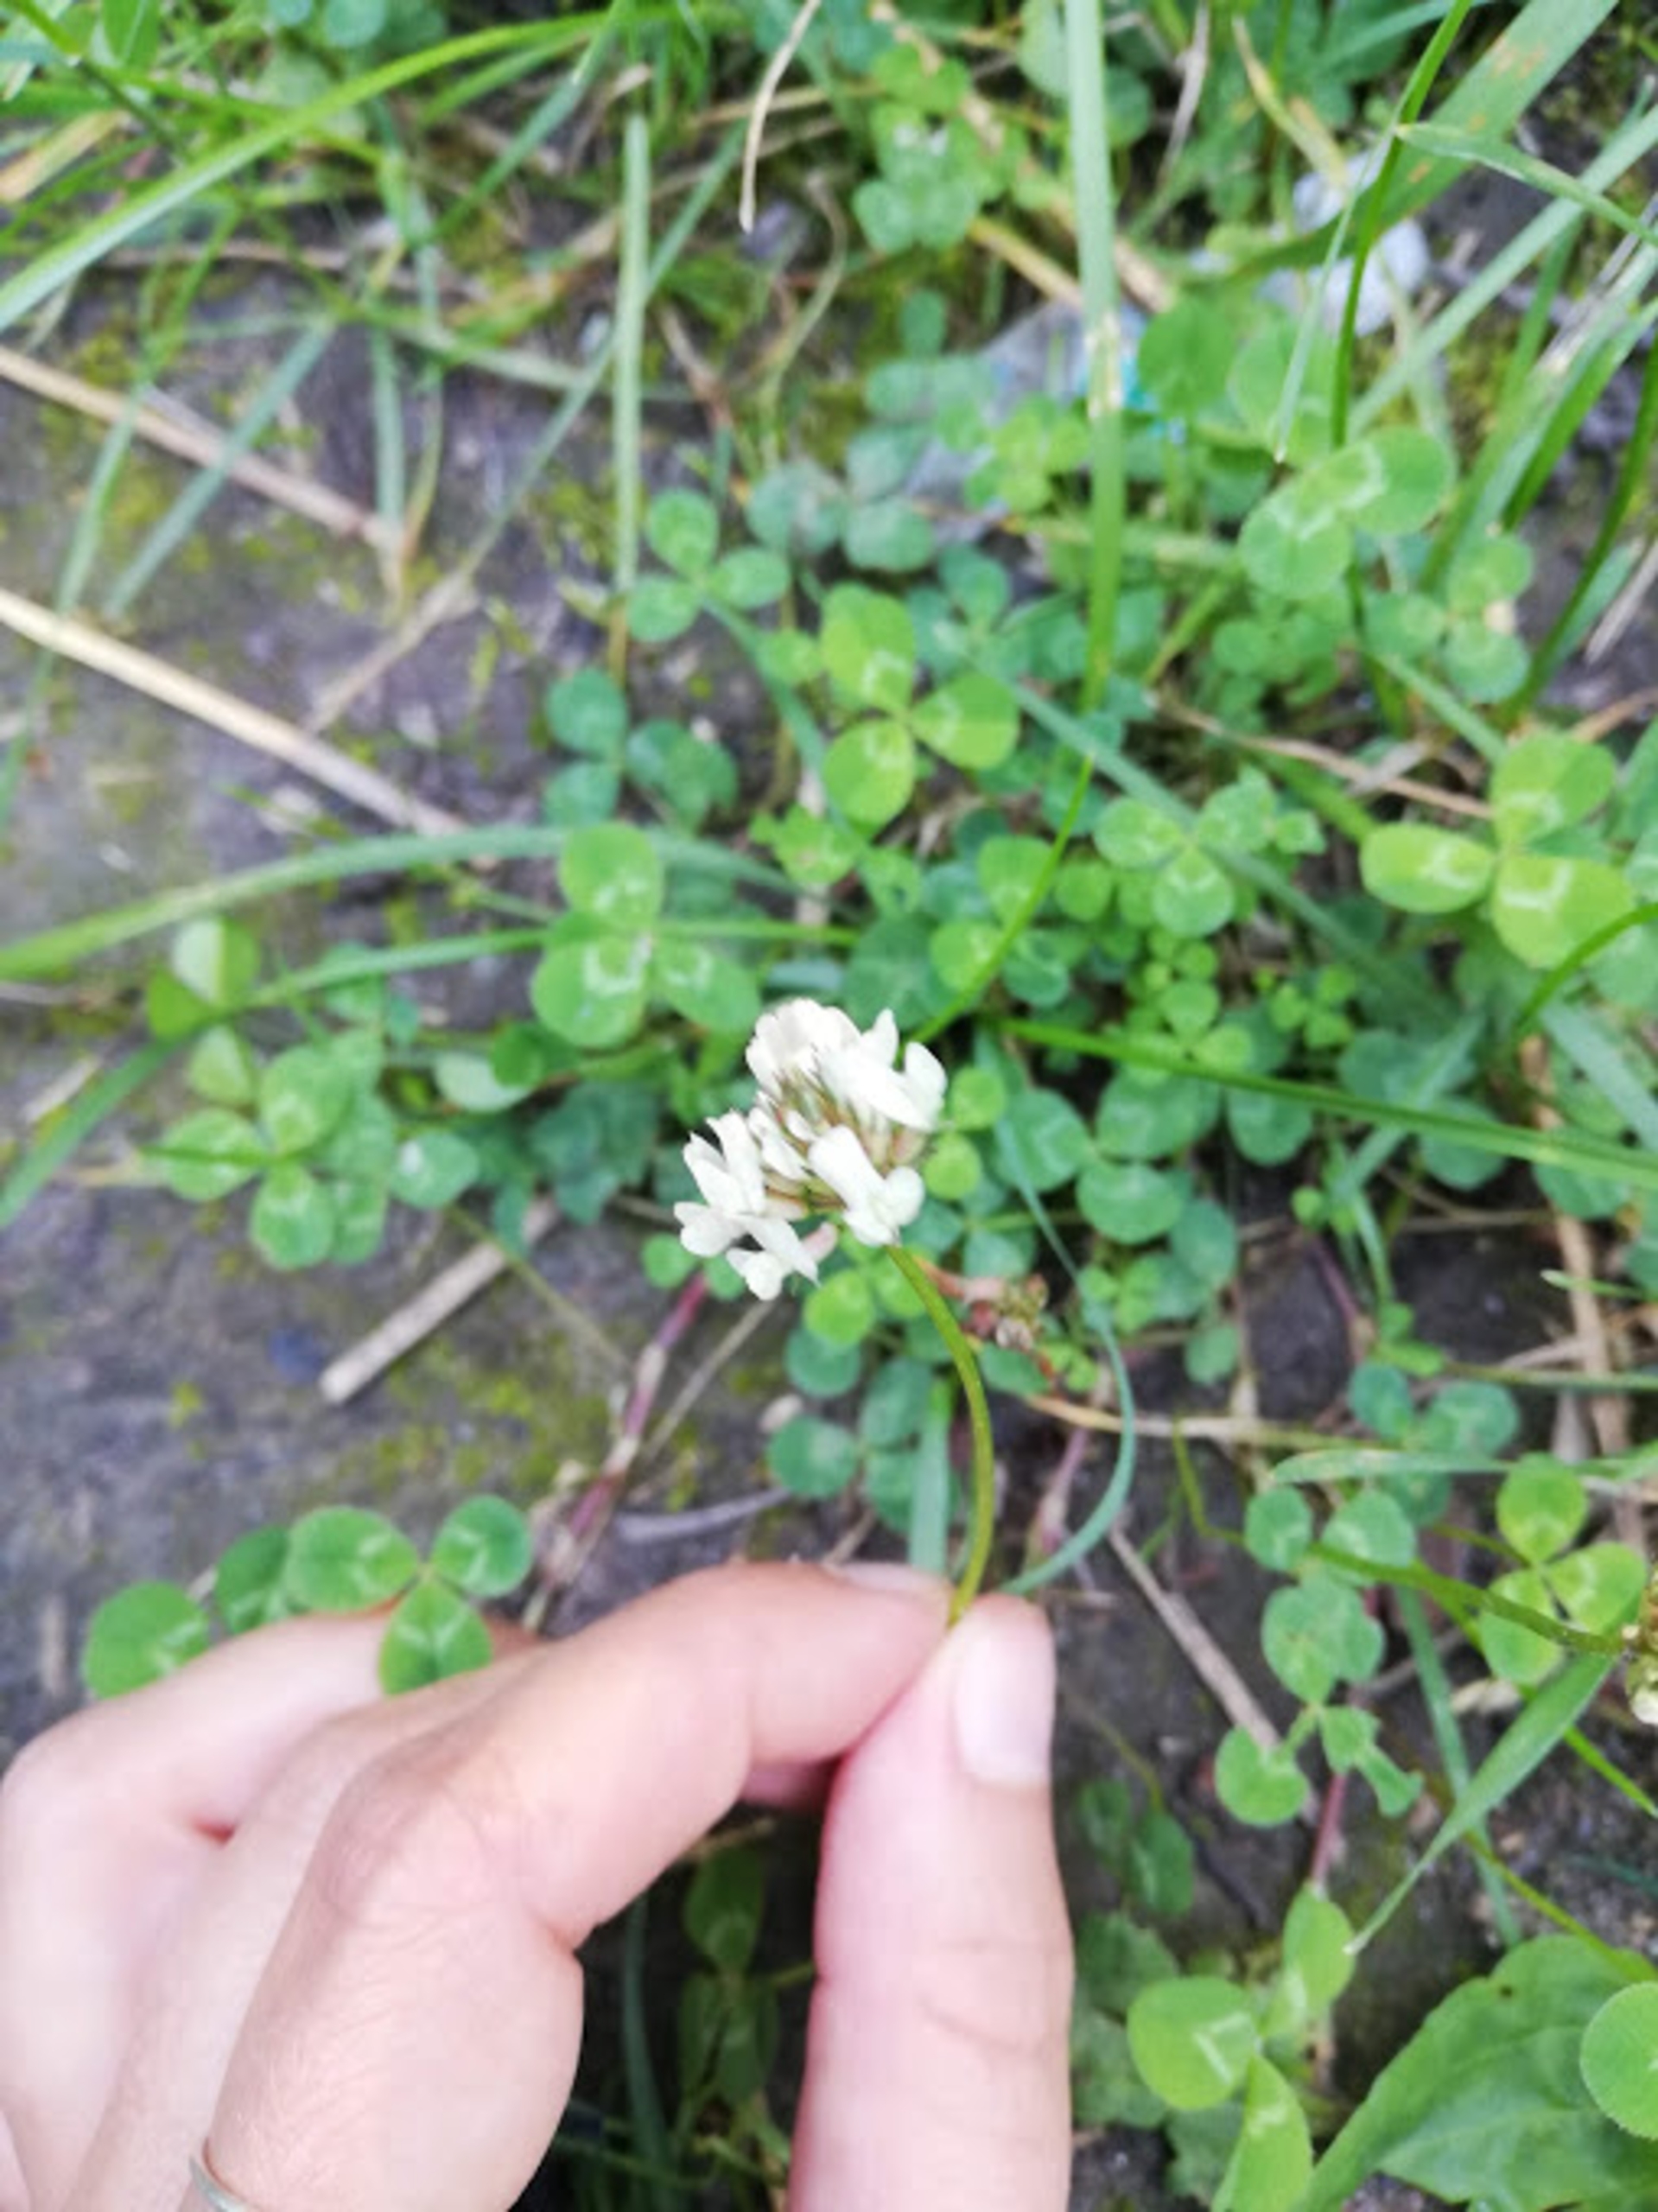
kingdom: Plantae
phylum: Tracheophyta
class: Magnoliopsida
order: Fabales
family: Fabaceae
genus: Trifolium
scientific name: Trifolium repens
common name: Hvid-kløver
